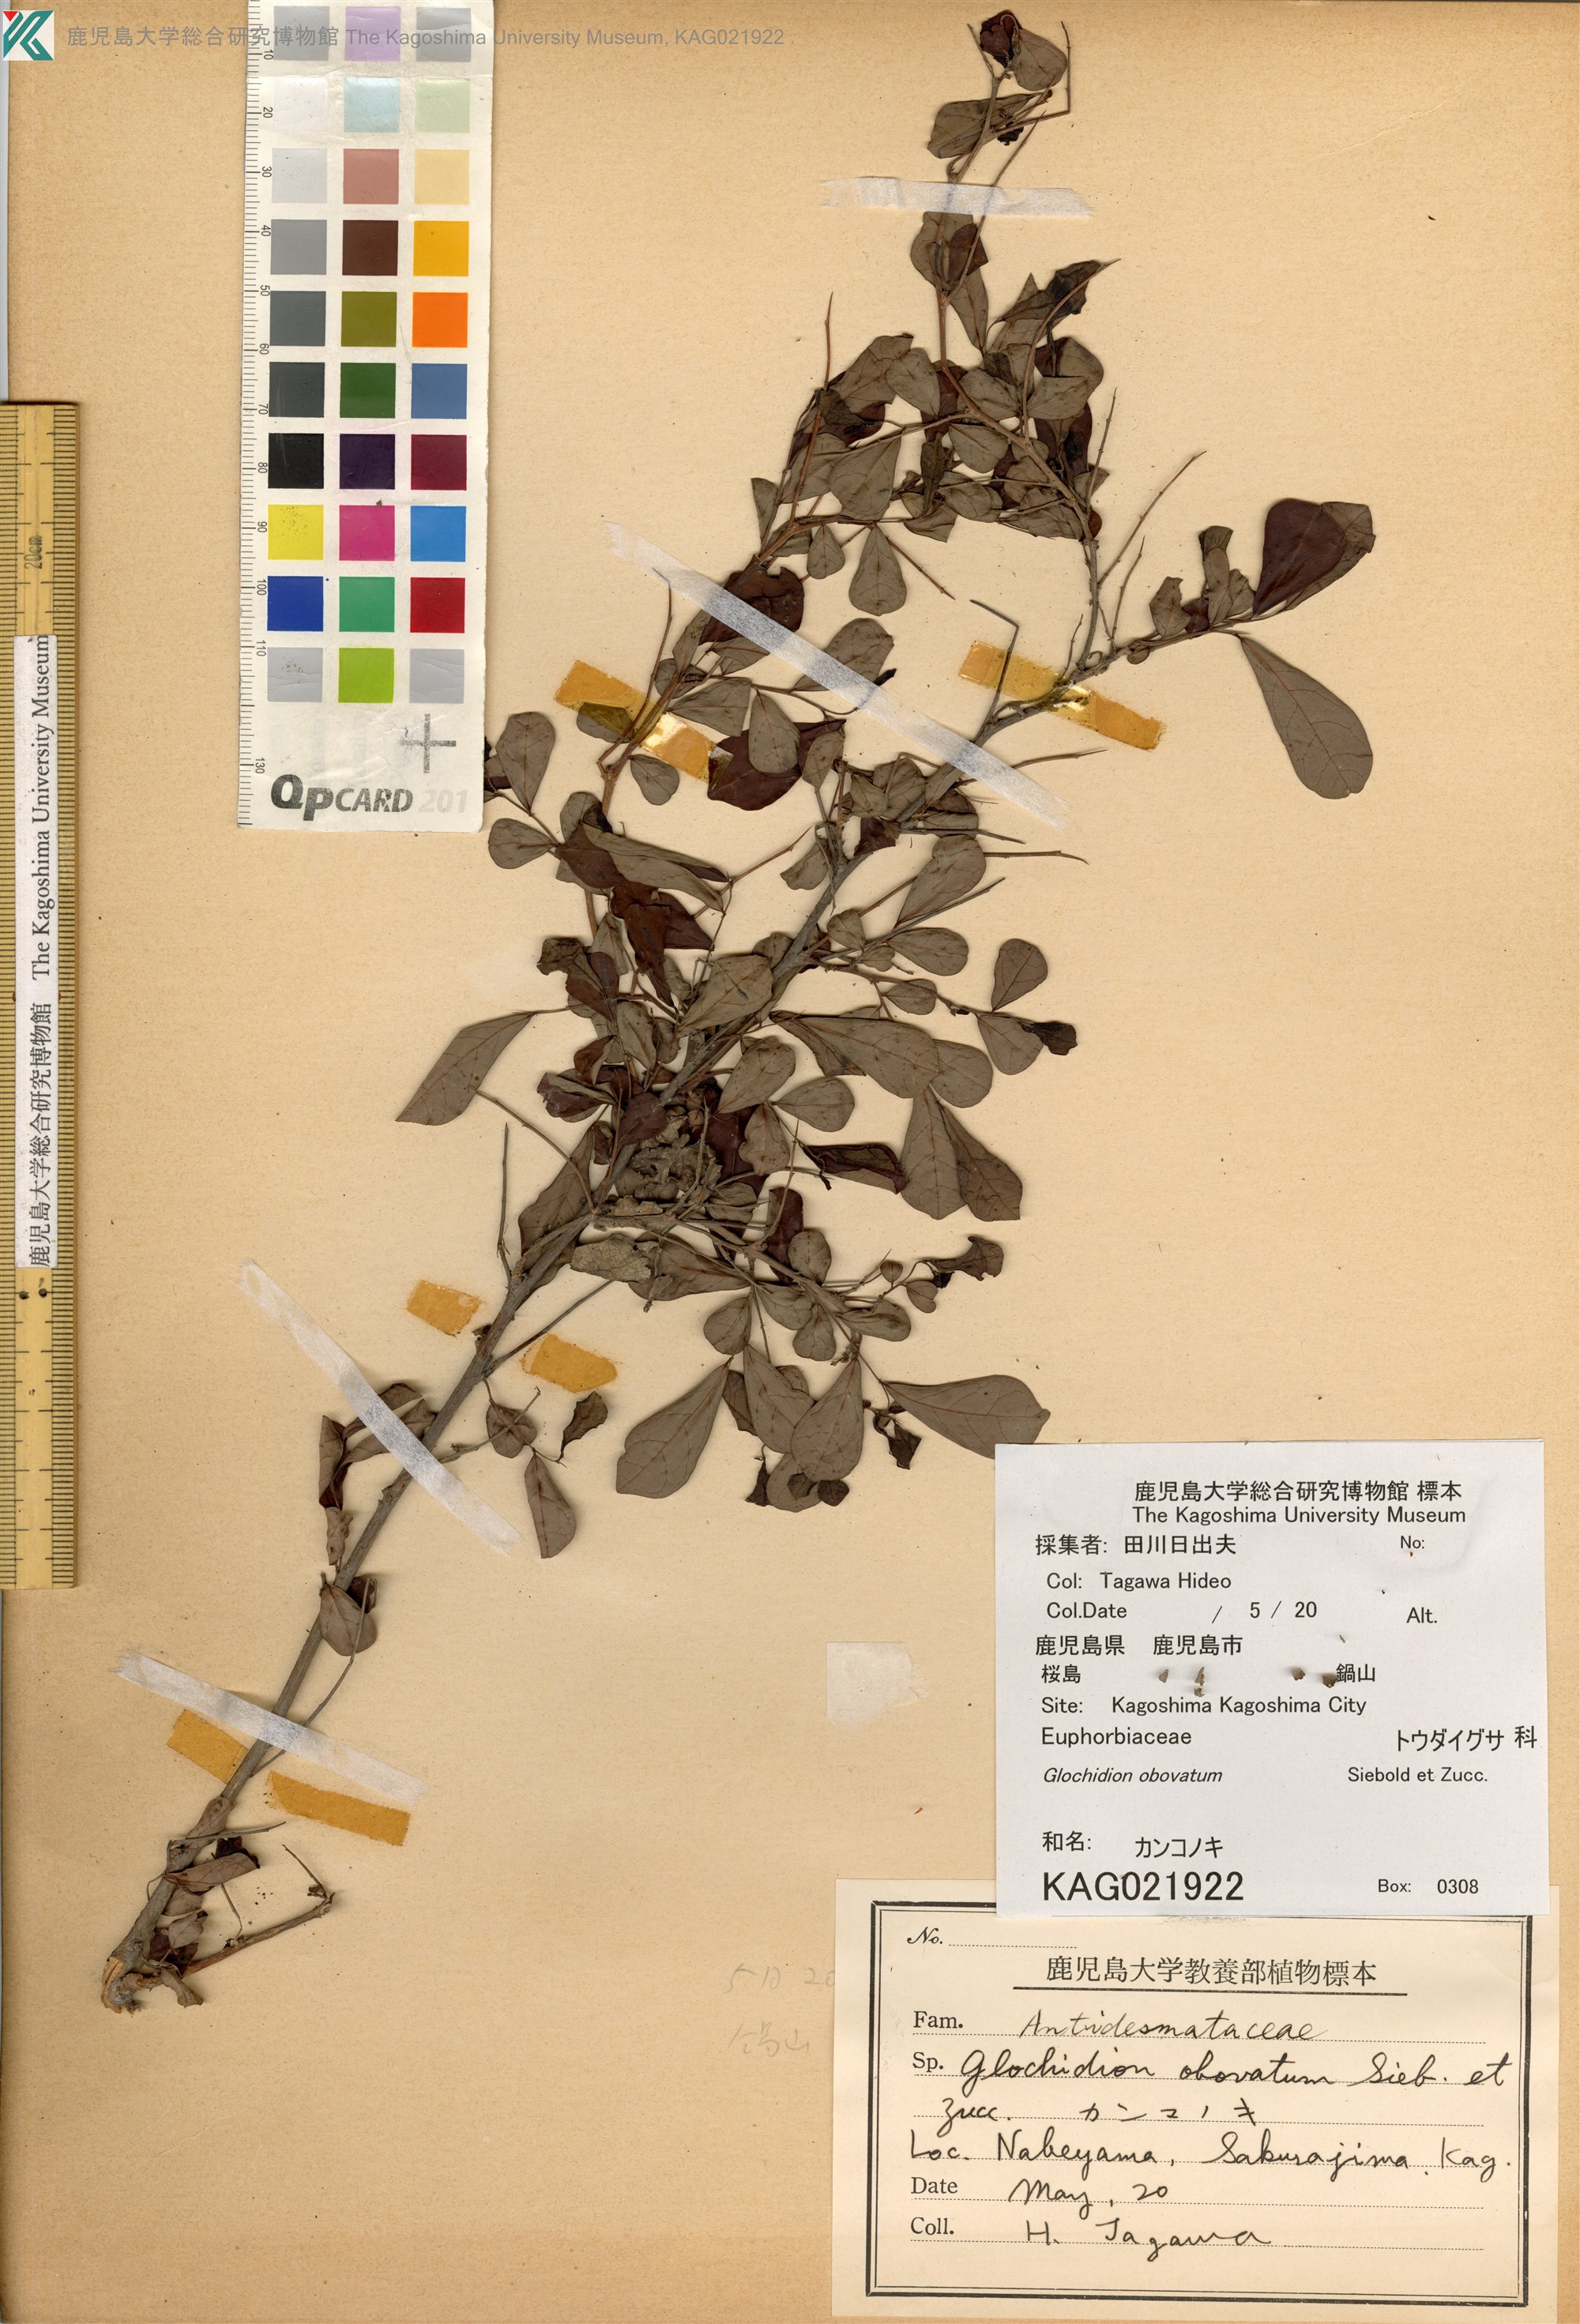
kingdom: Plantae
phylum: Tracheophyta
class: Magnoliopsida
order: Malpighiales
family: Phyllanthaceae
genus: Glochidion
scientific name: Glochidion obovatum
